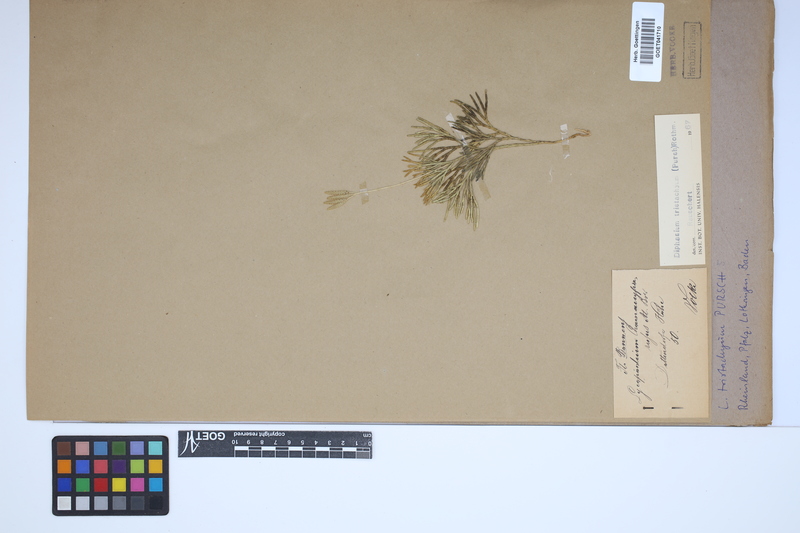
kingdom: Plantae
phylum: Tracheophyta
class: Lycopodiopsida
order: Lycopodiales
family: Lycopodiaceae
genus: Diphasiastrum
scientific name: Diphasiastrum tristachyum
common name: Blue ground-cedar
